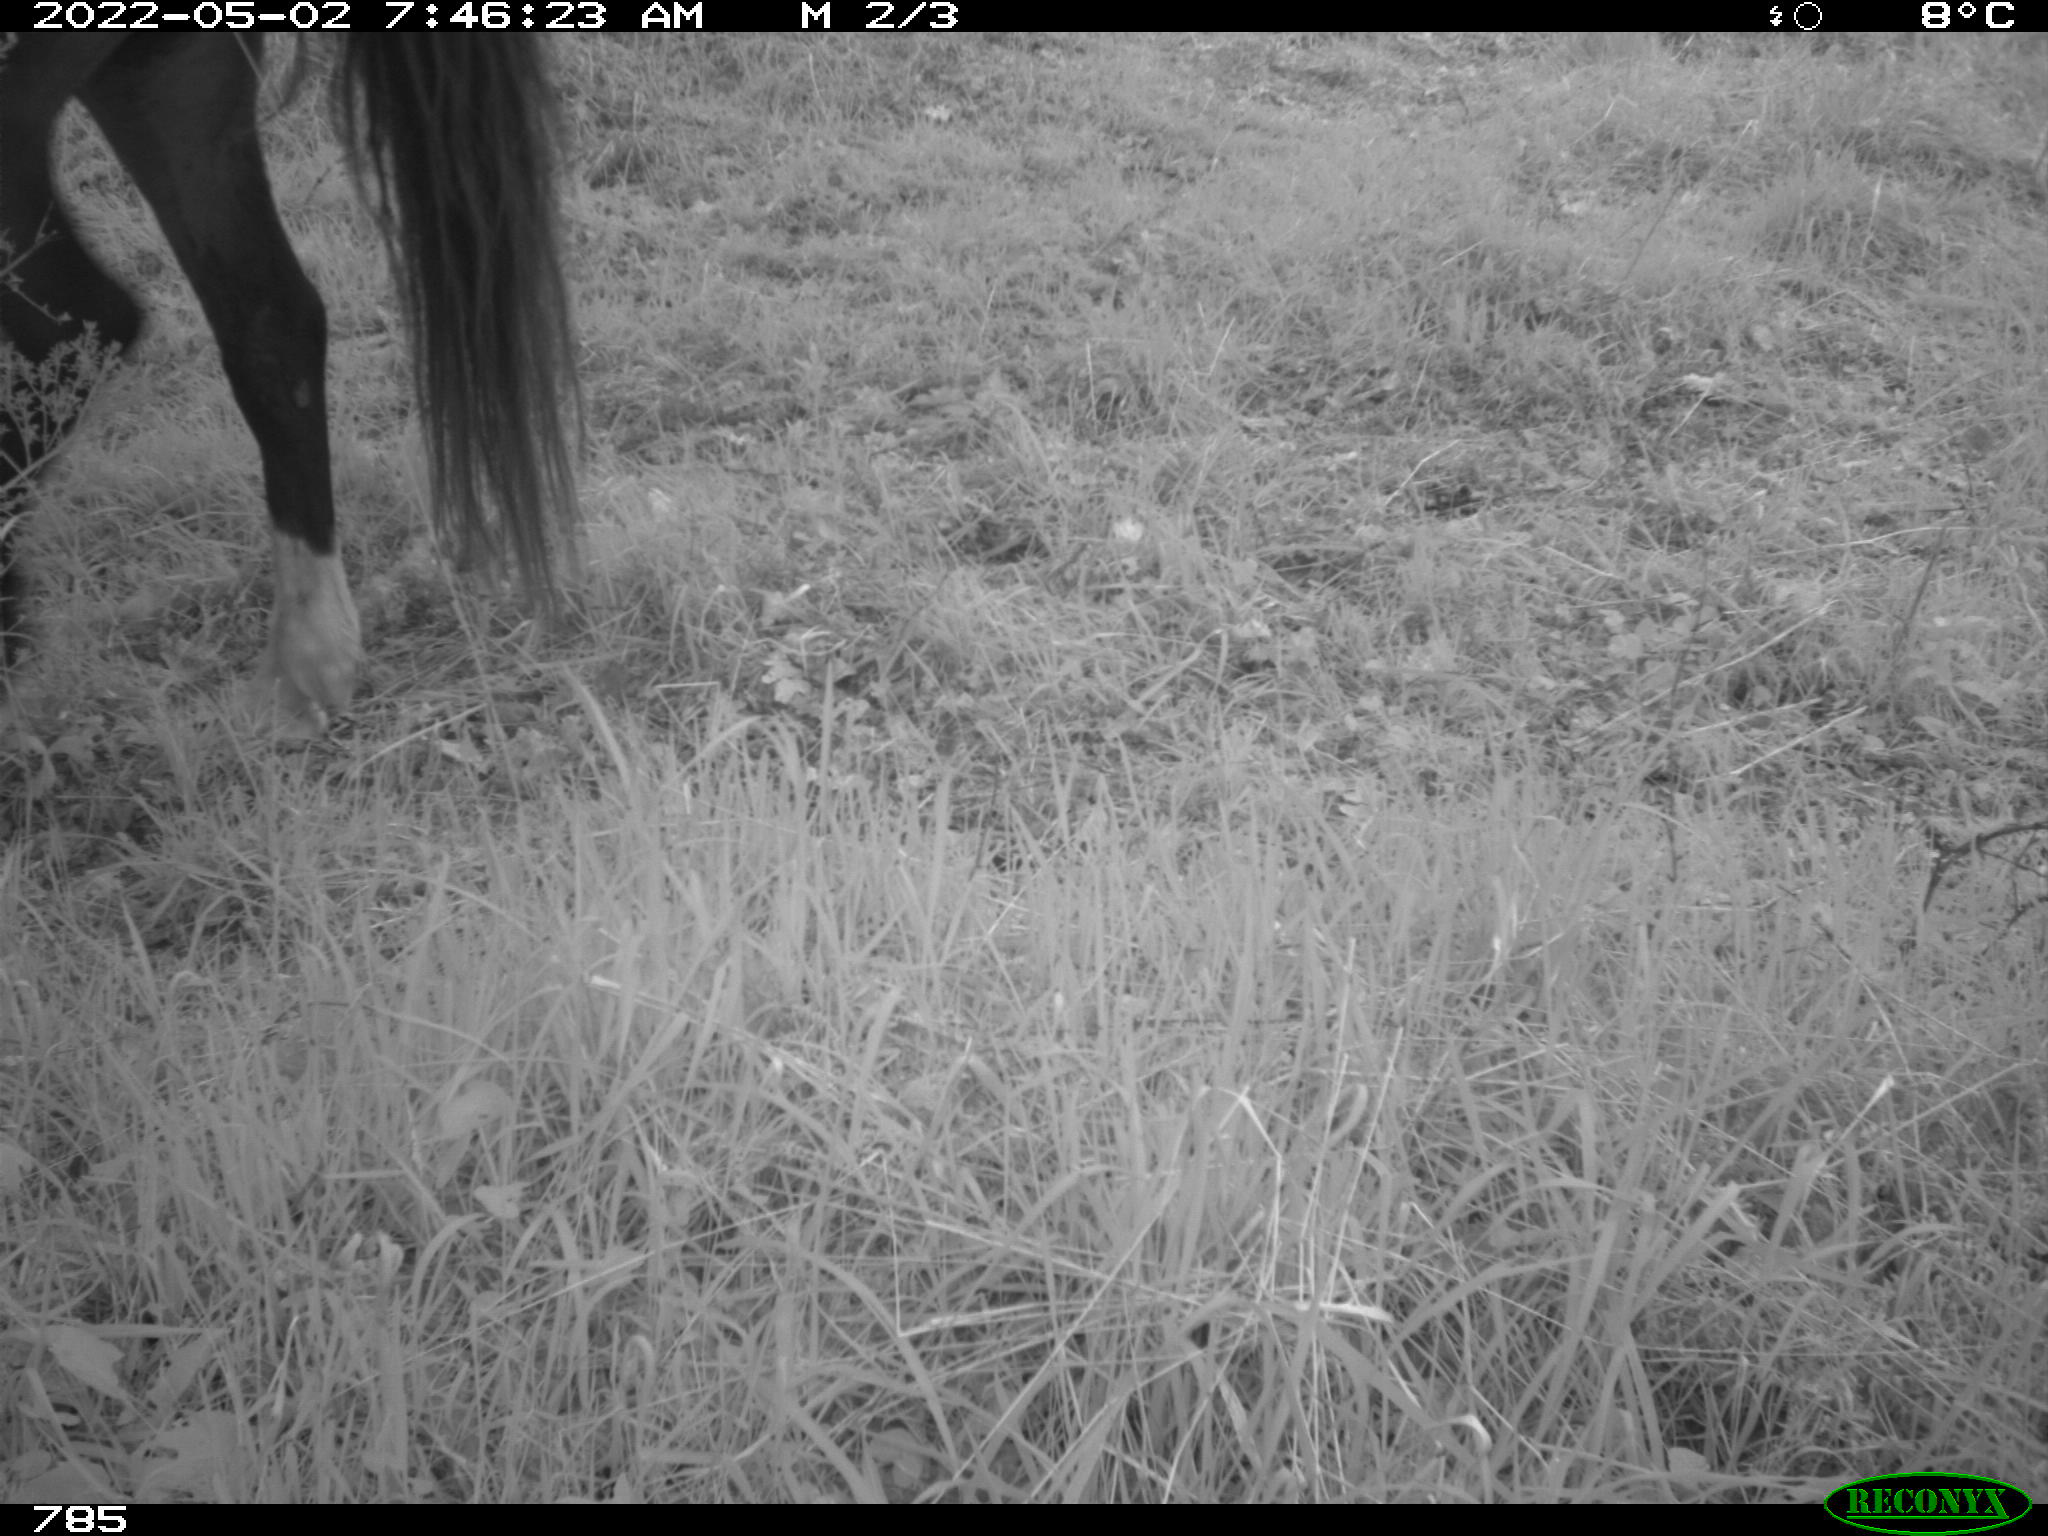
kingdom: Animalia
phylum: Chordata
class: Mammalia
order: Perissodactyla
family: Equidae
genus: Equus
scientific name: Equus caballus
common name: Horse
